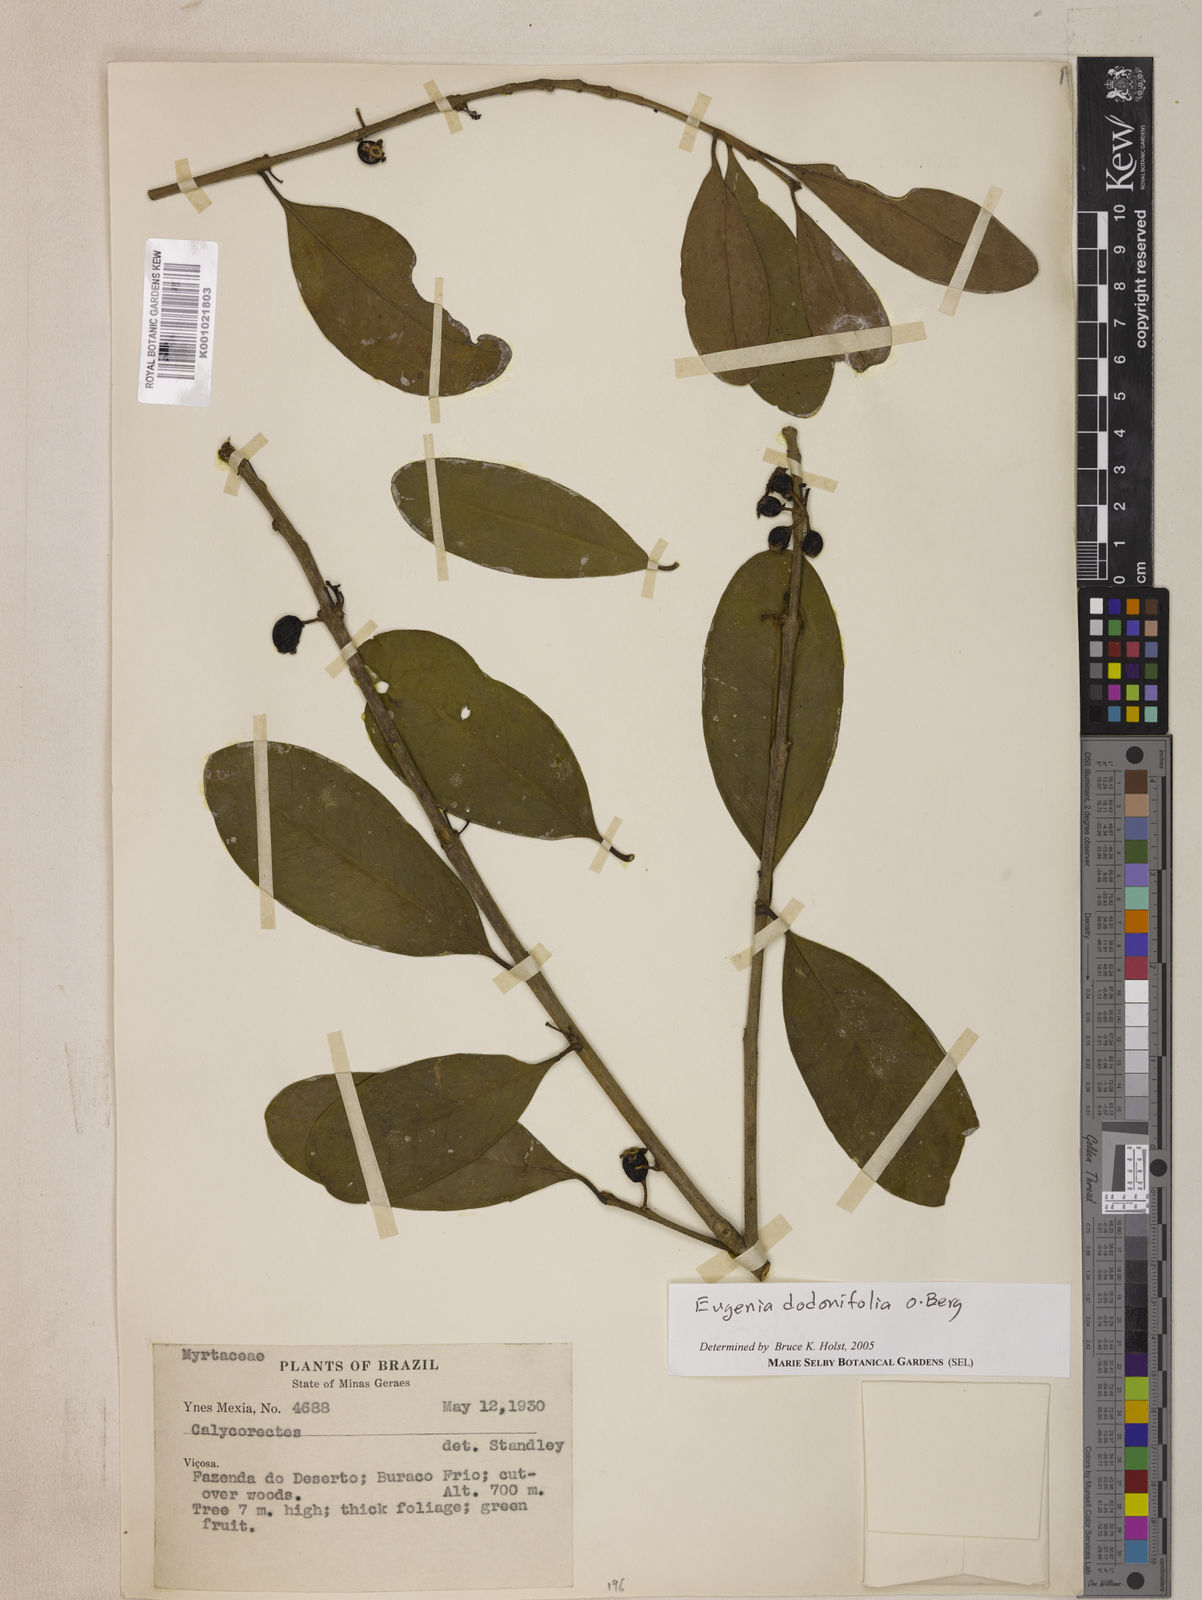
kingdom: Plantae
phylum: Tracheophyta
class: Magnoliopsida
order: Myrtales
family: Myrtaceae
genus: Eugenia
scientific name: Eugenia dodonaeifolia
